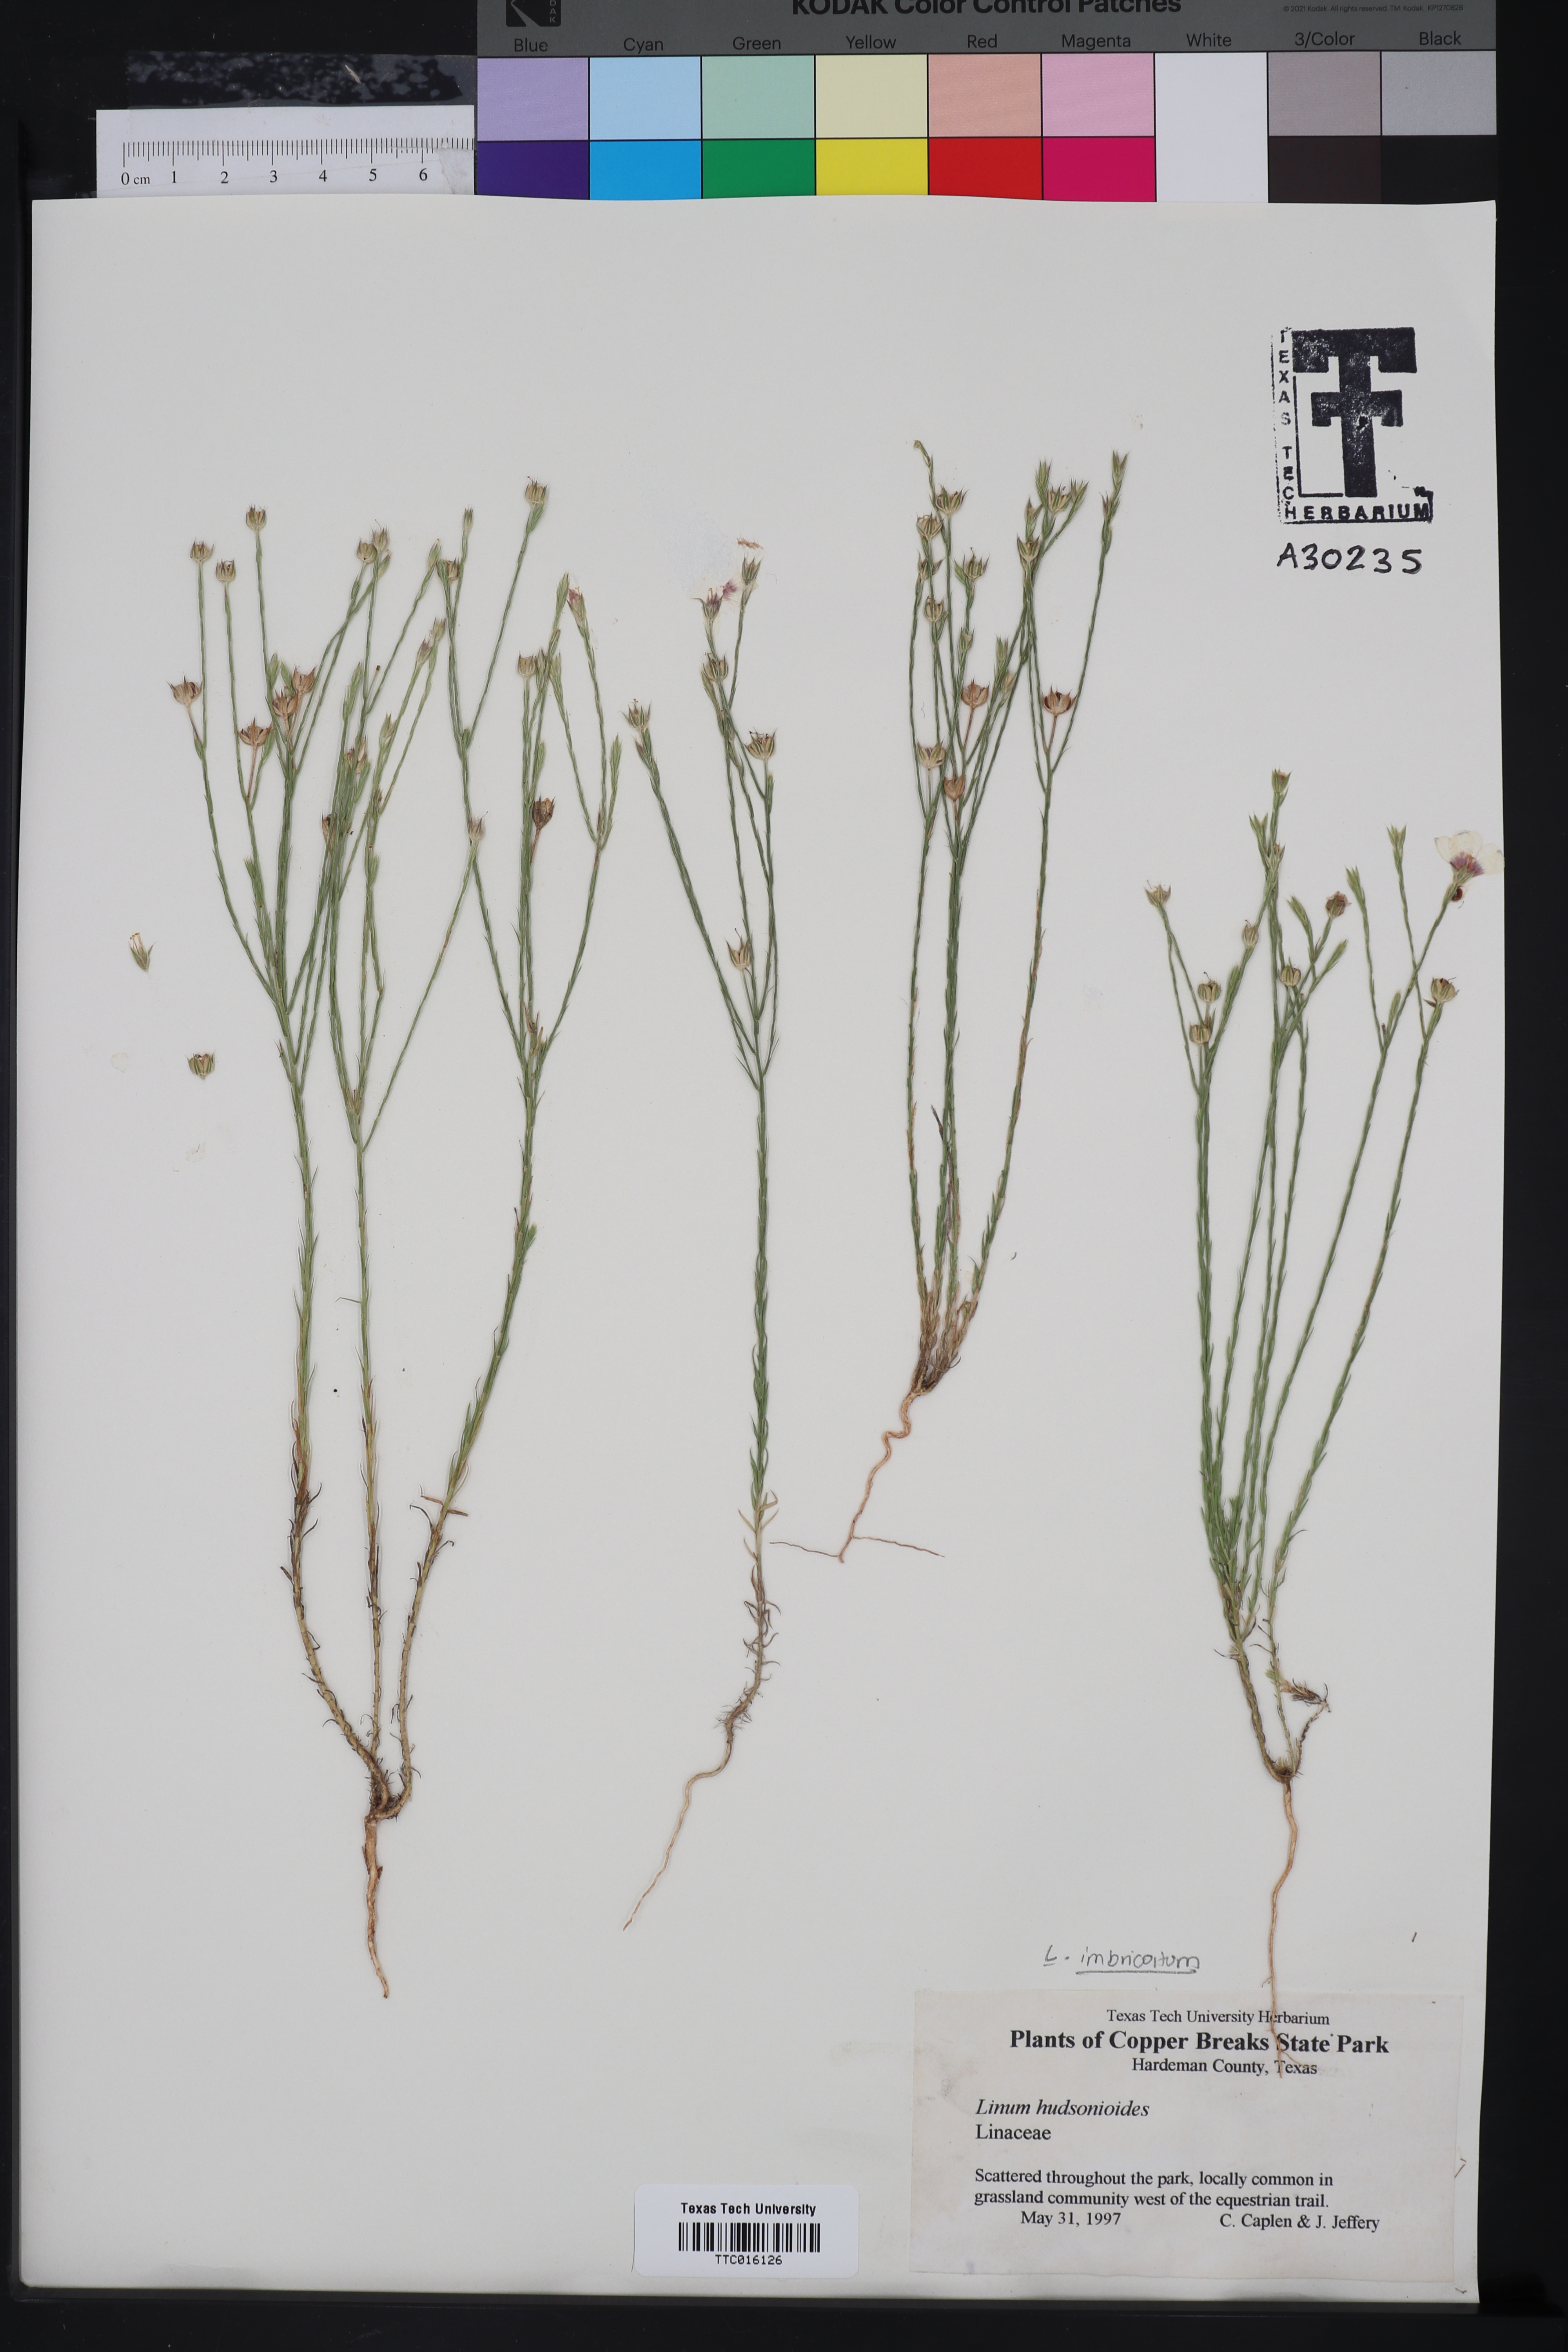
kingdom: Plantae
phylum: Tracheophyta
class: Magnoliopsida
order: Malpighiales
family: Linaceae
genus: Linum
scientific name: Linum hudsonioides
